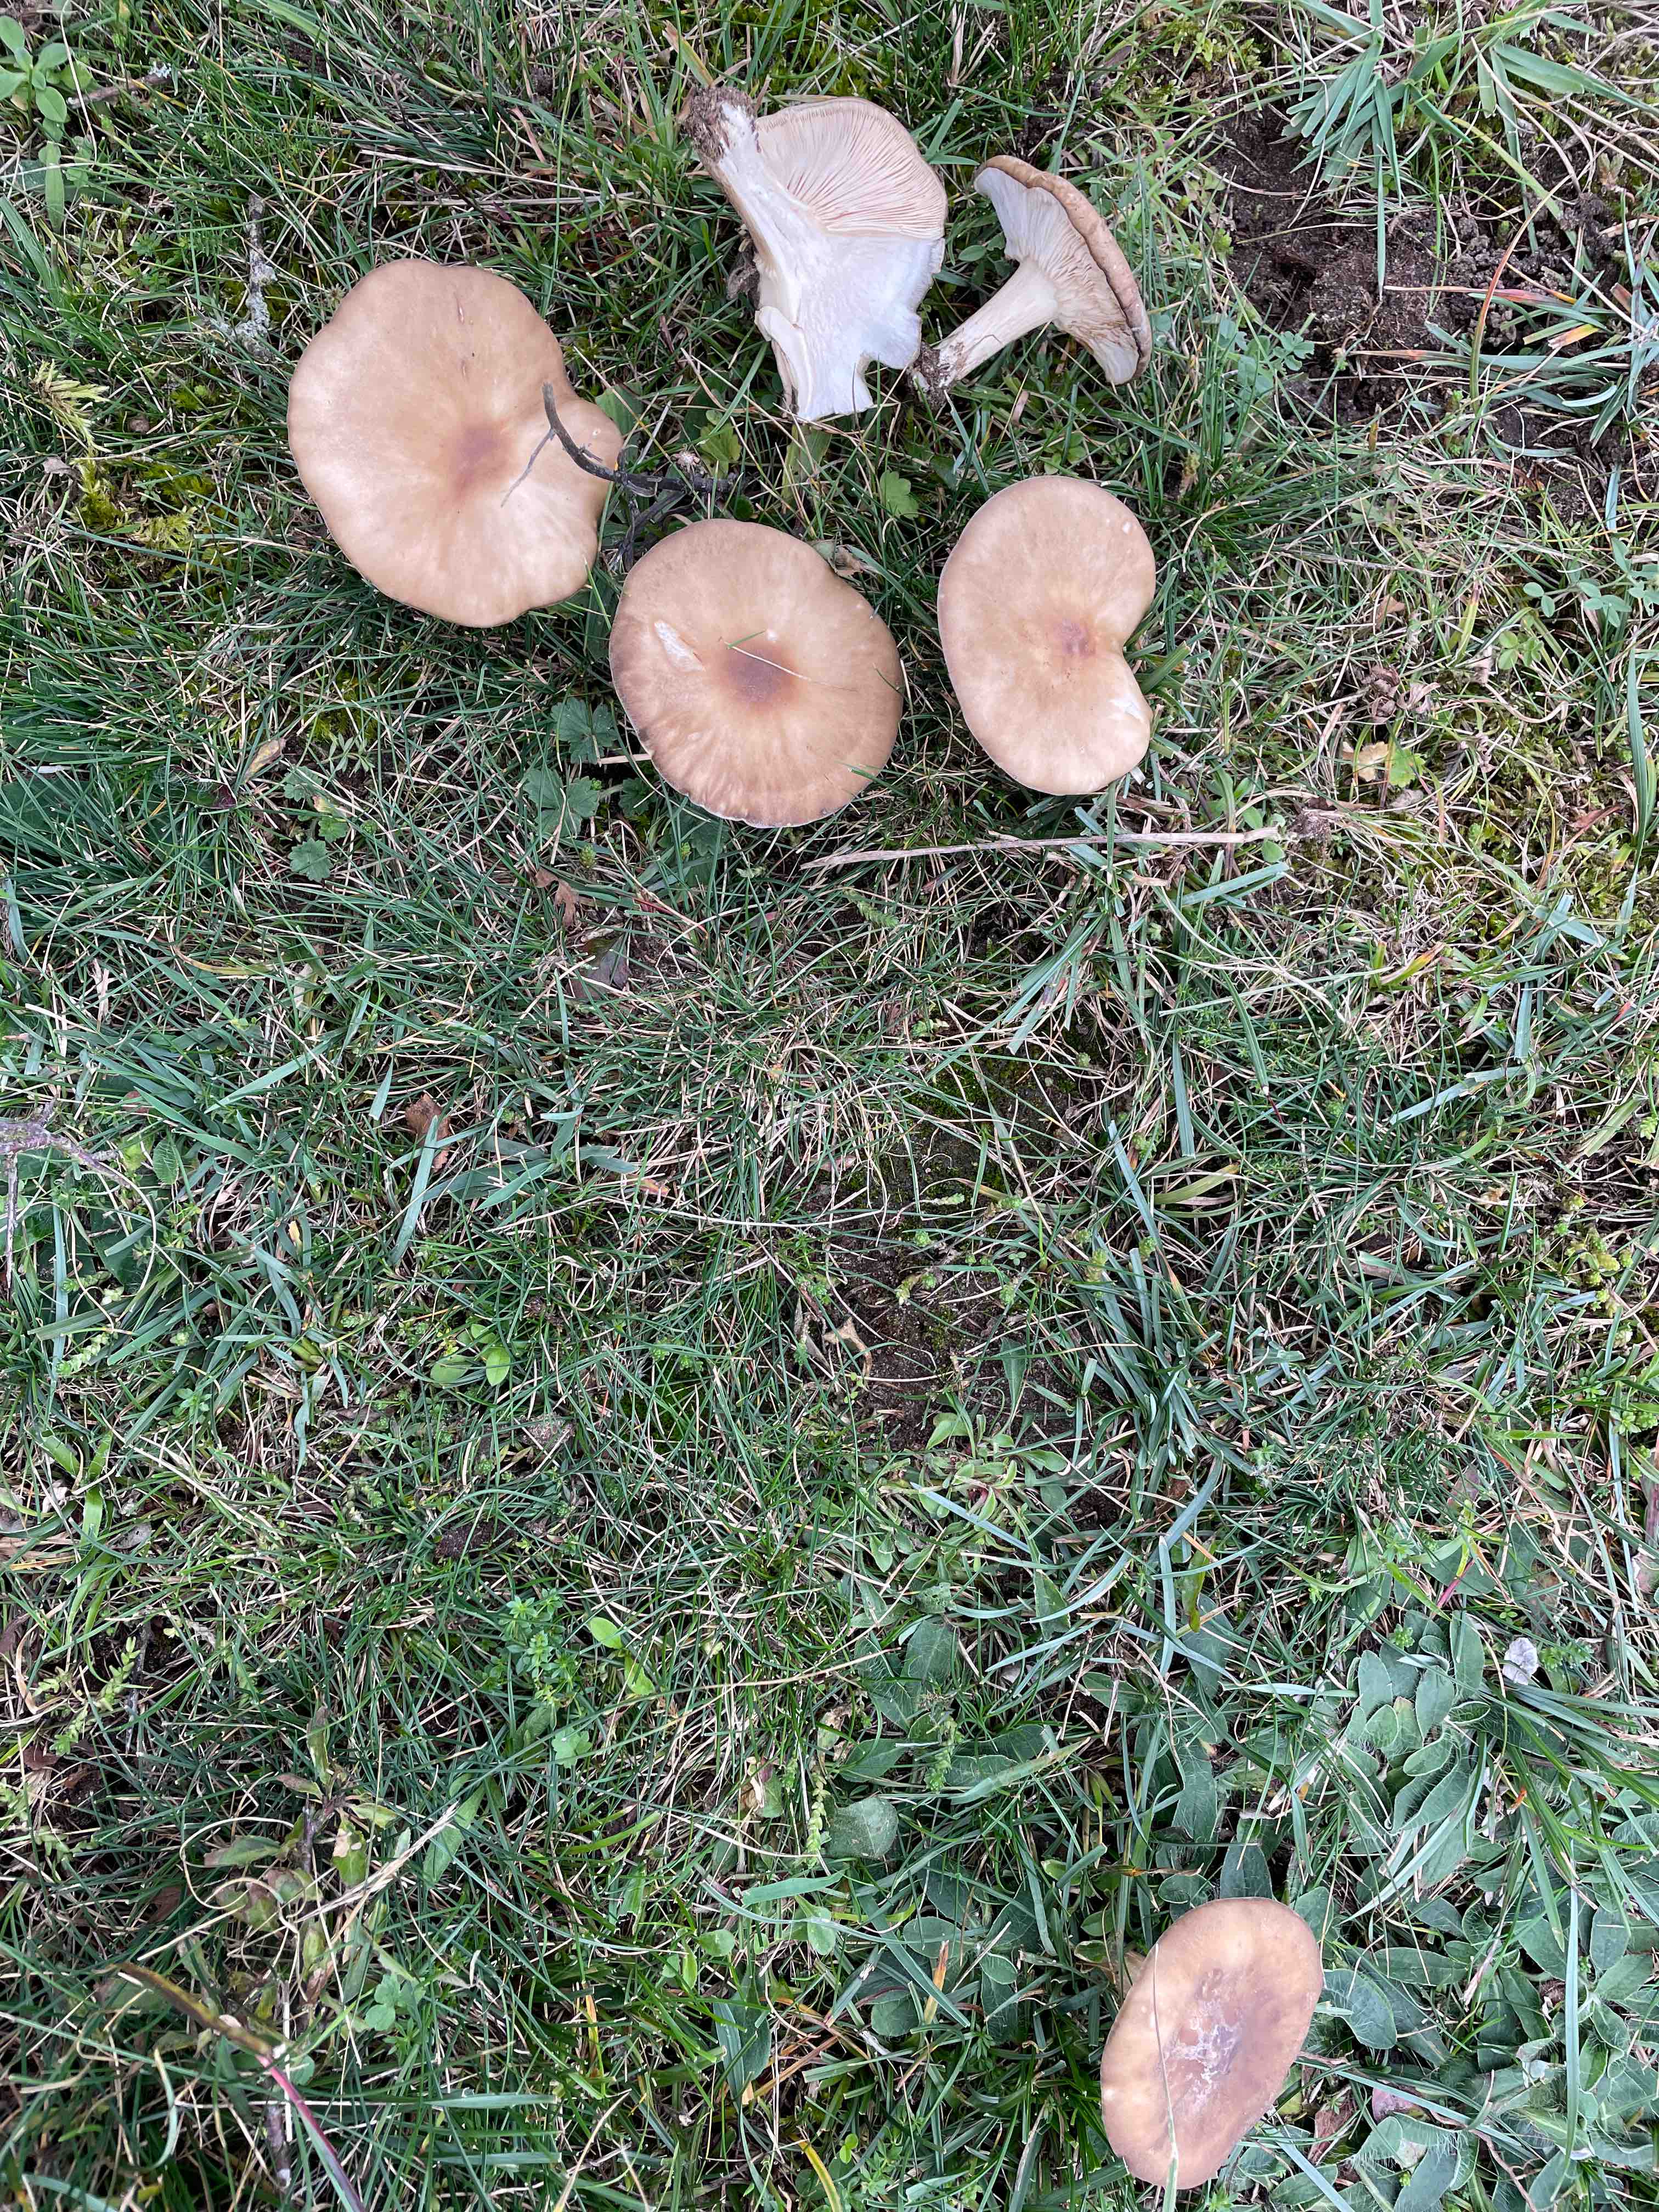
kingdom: Fungi
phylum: Basidiomycota
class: Agaricomycetes
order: Agaricales
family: Tricholomataceae
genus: Melanoleuca
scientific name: Melanoleuca
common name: munkehat
